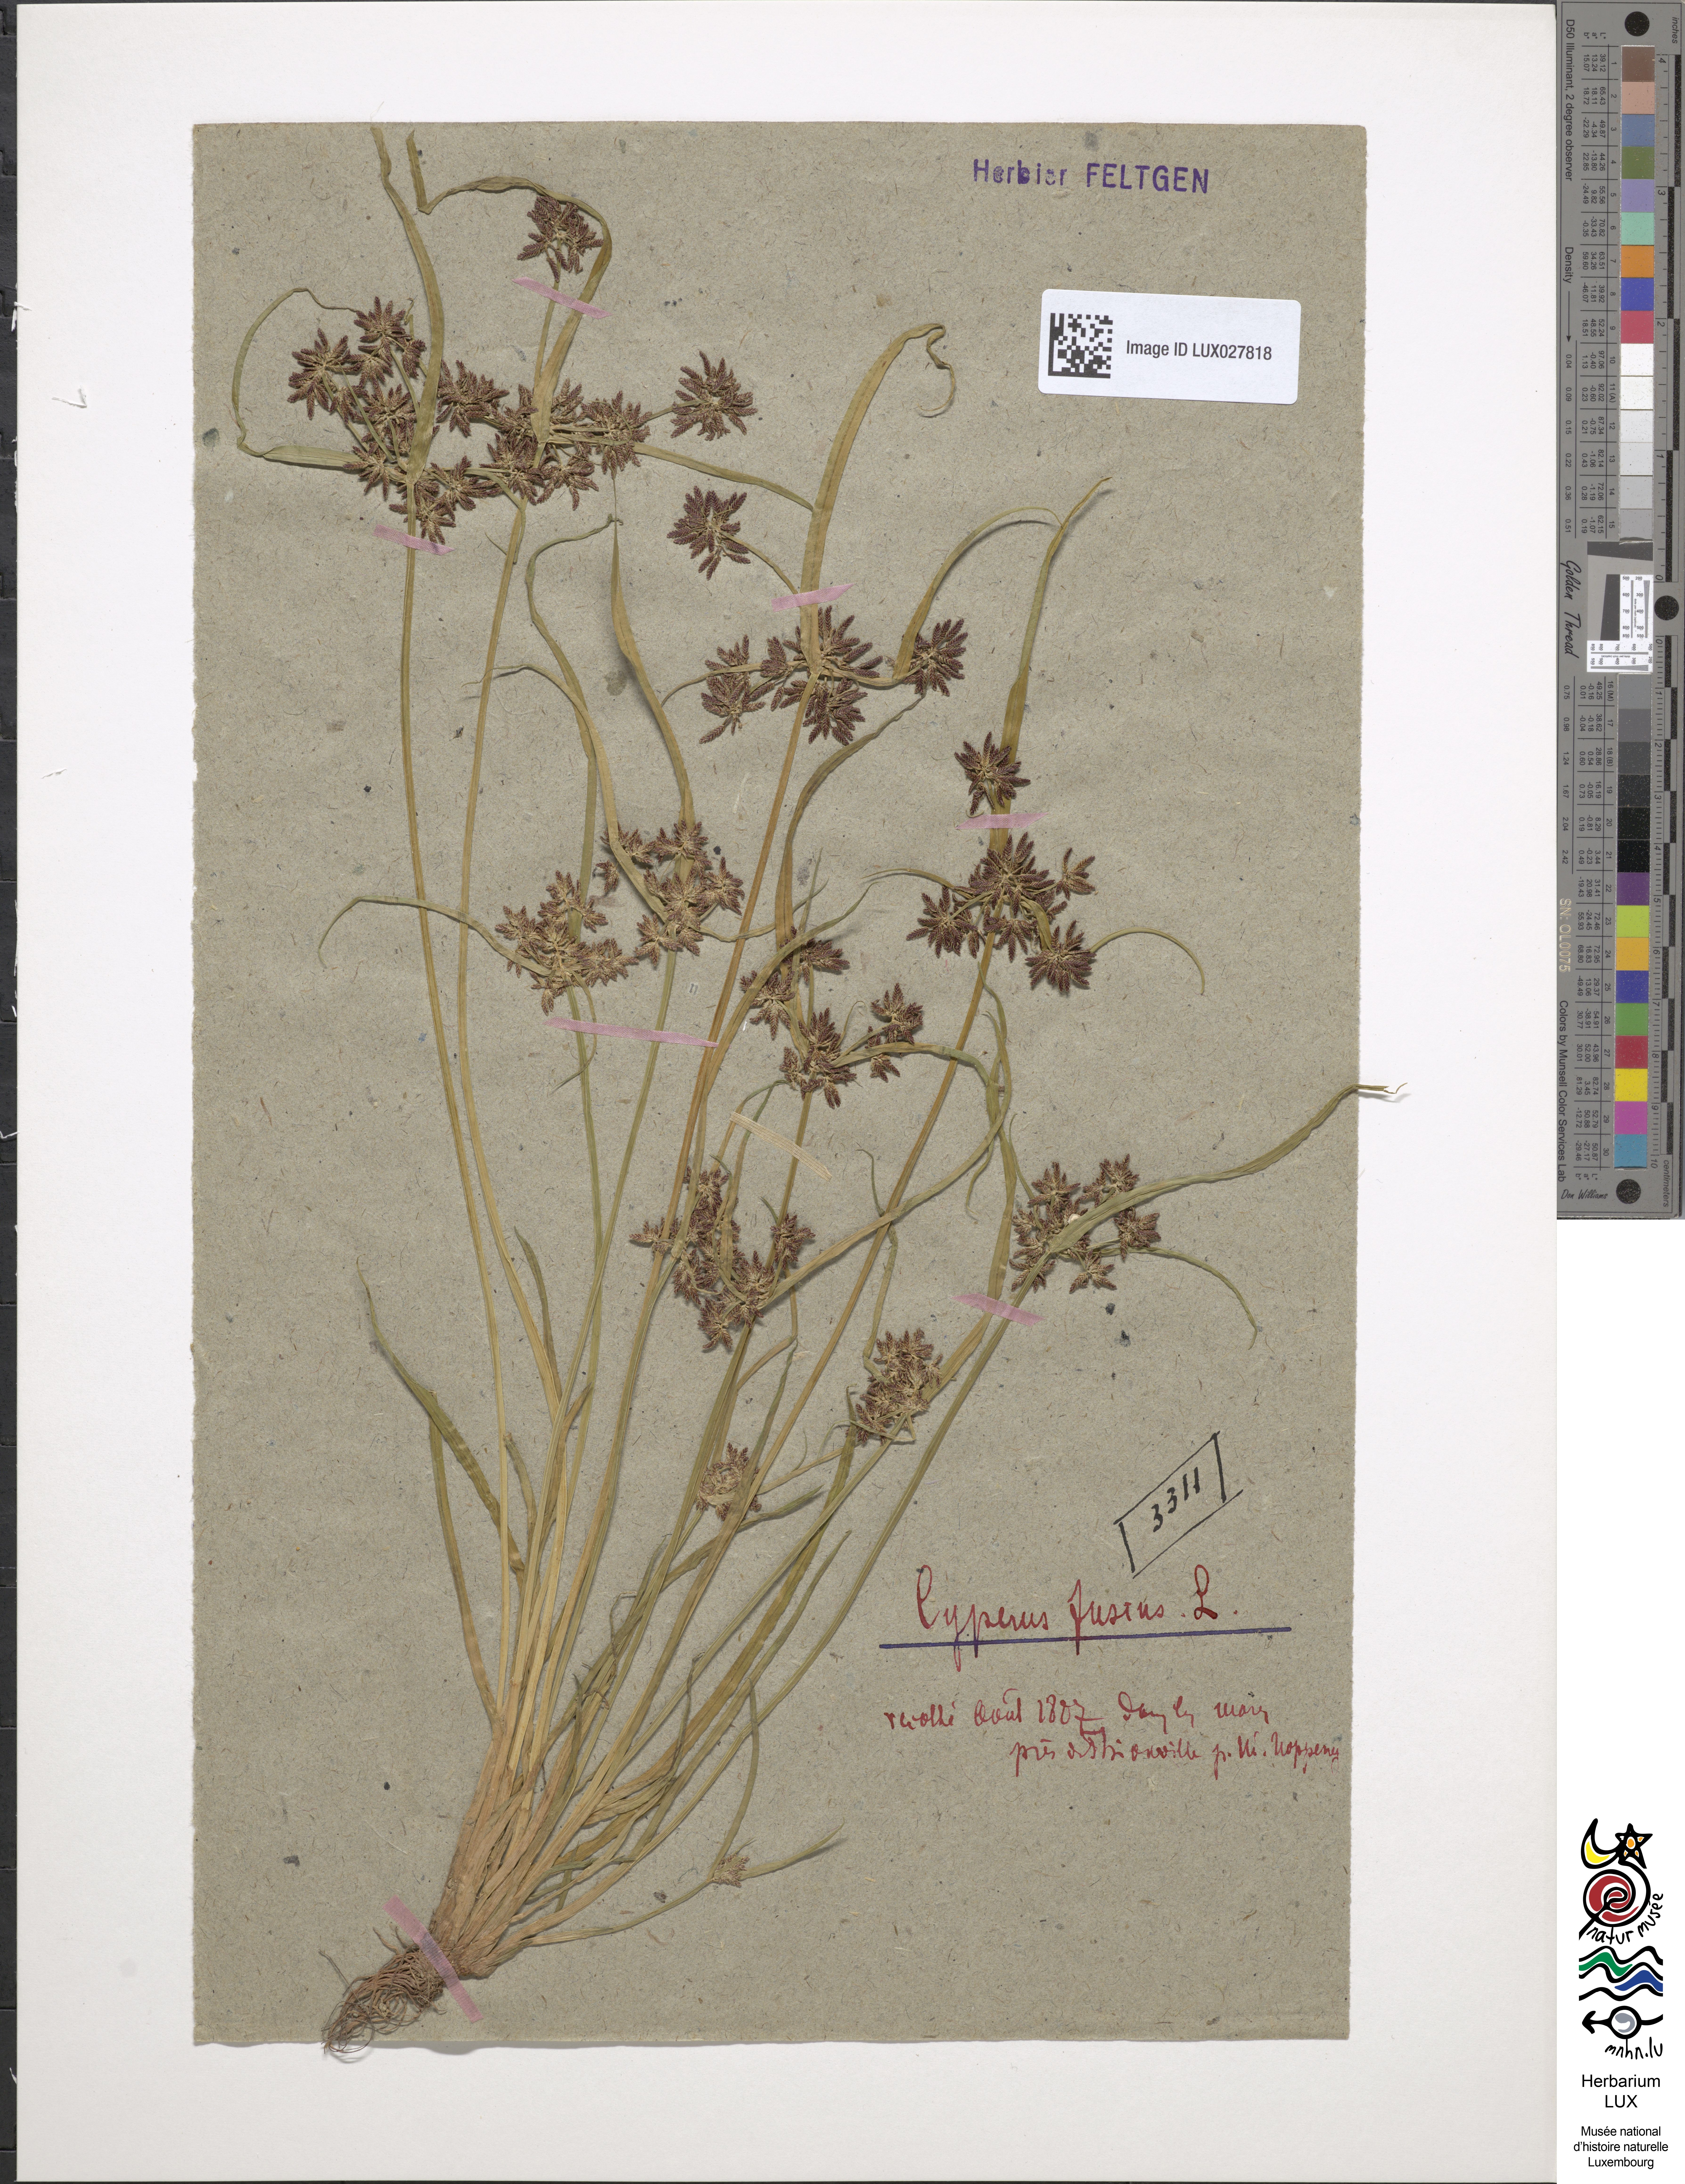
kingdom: Plantae
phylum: Tracheophyta
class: Liliopsida
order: Poales
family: Cyperaceae
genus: Cyperus
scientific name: Cyperus fuscus
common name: Brown galingale
